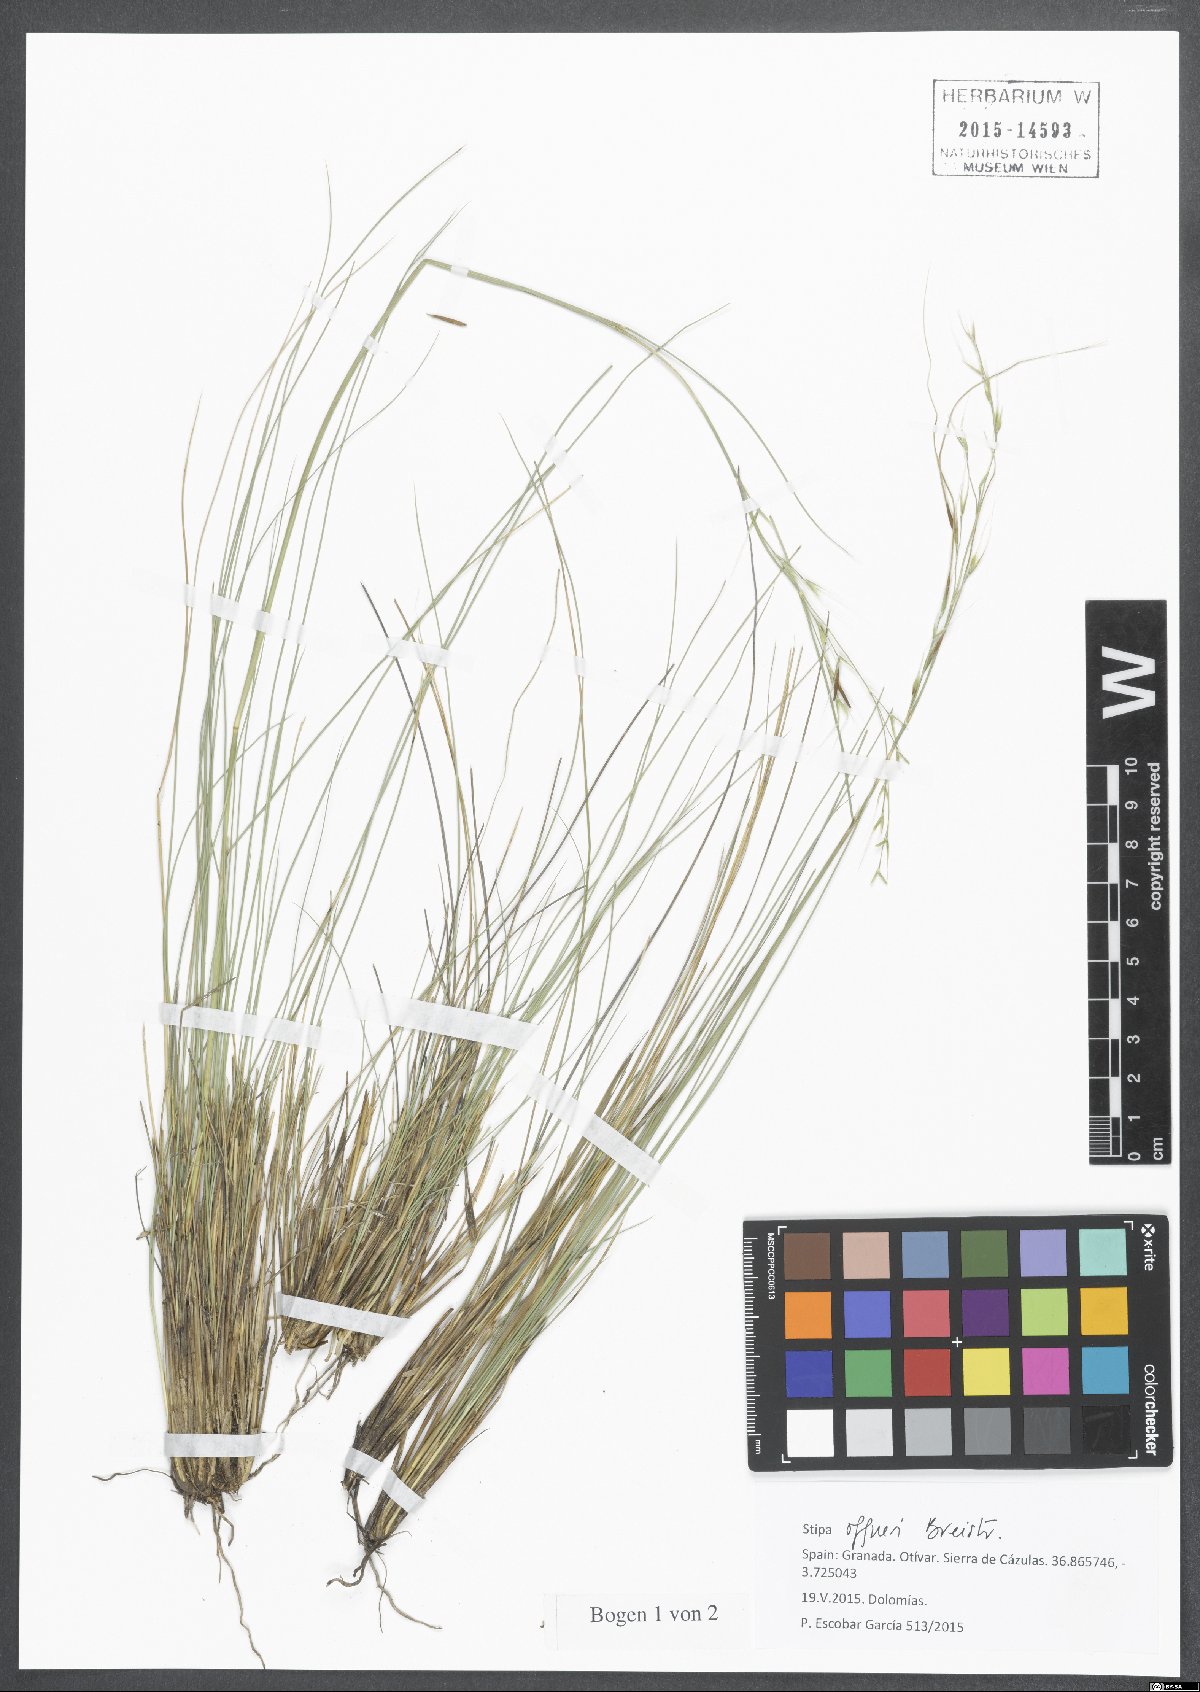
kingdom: Plantae
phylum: Tracheophyta
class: Liliopsida
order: Poales
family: Poaceae
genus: Stipa
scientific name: Stipa offneri
